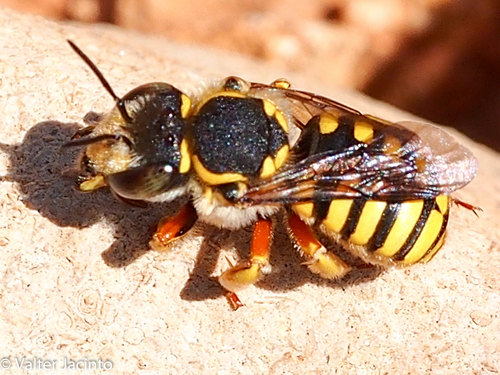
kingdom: Animalia
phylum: Arthropoda
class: Insecta
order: Hymenoptera
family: Megachilidae
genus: Anthidium
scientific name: Anthidium
